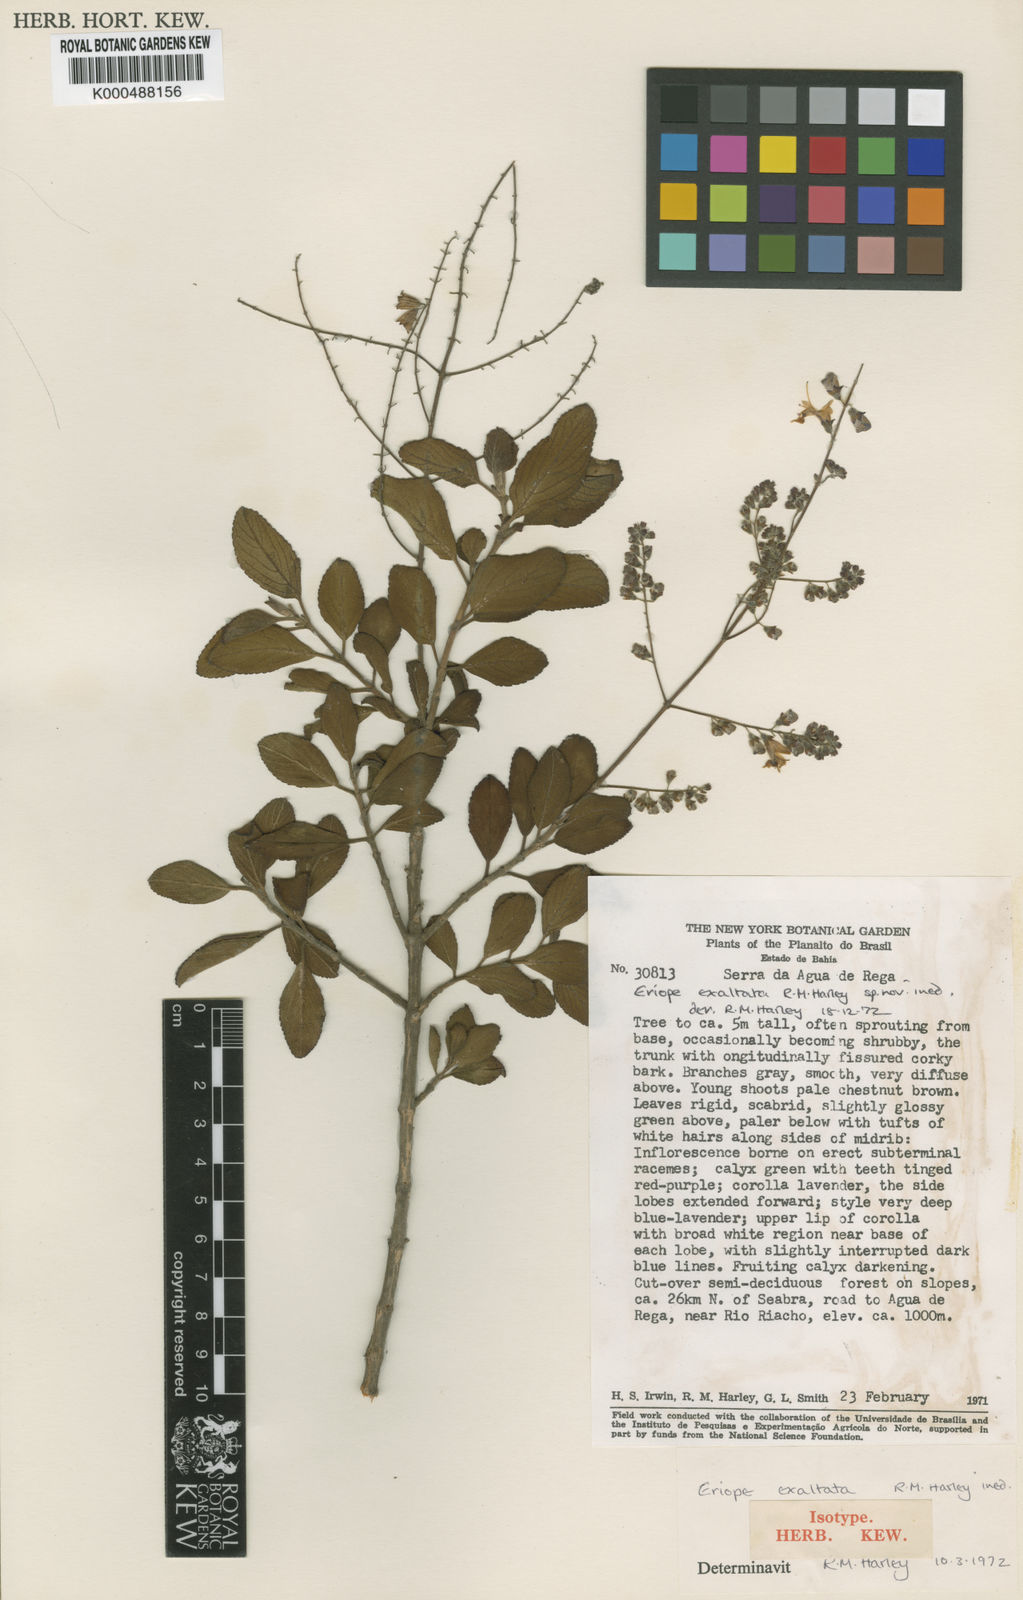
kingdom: Plantae
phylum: Tracheophyta
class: Magnoliopsida
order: Lamiales
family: Lamiaceae
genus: Eriope
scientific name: Eriope exaltata
